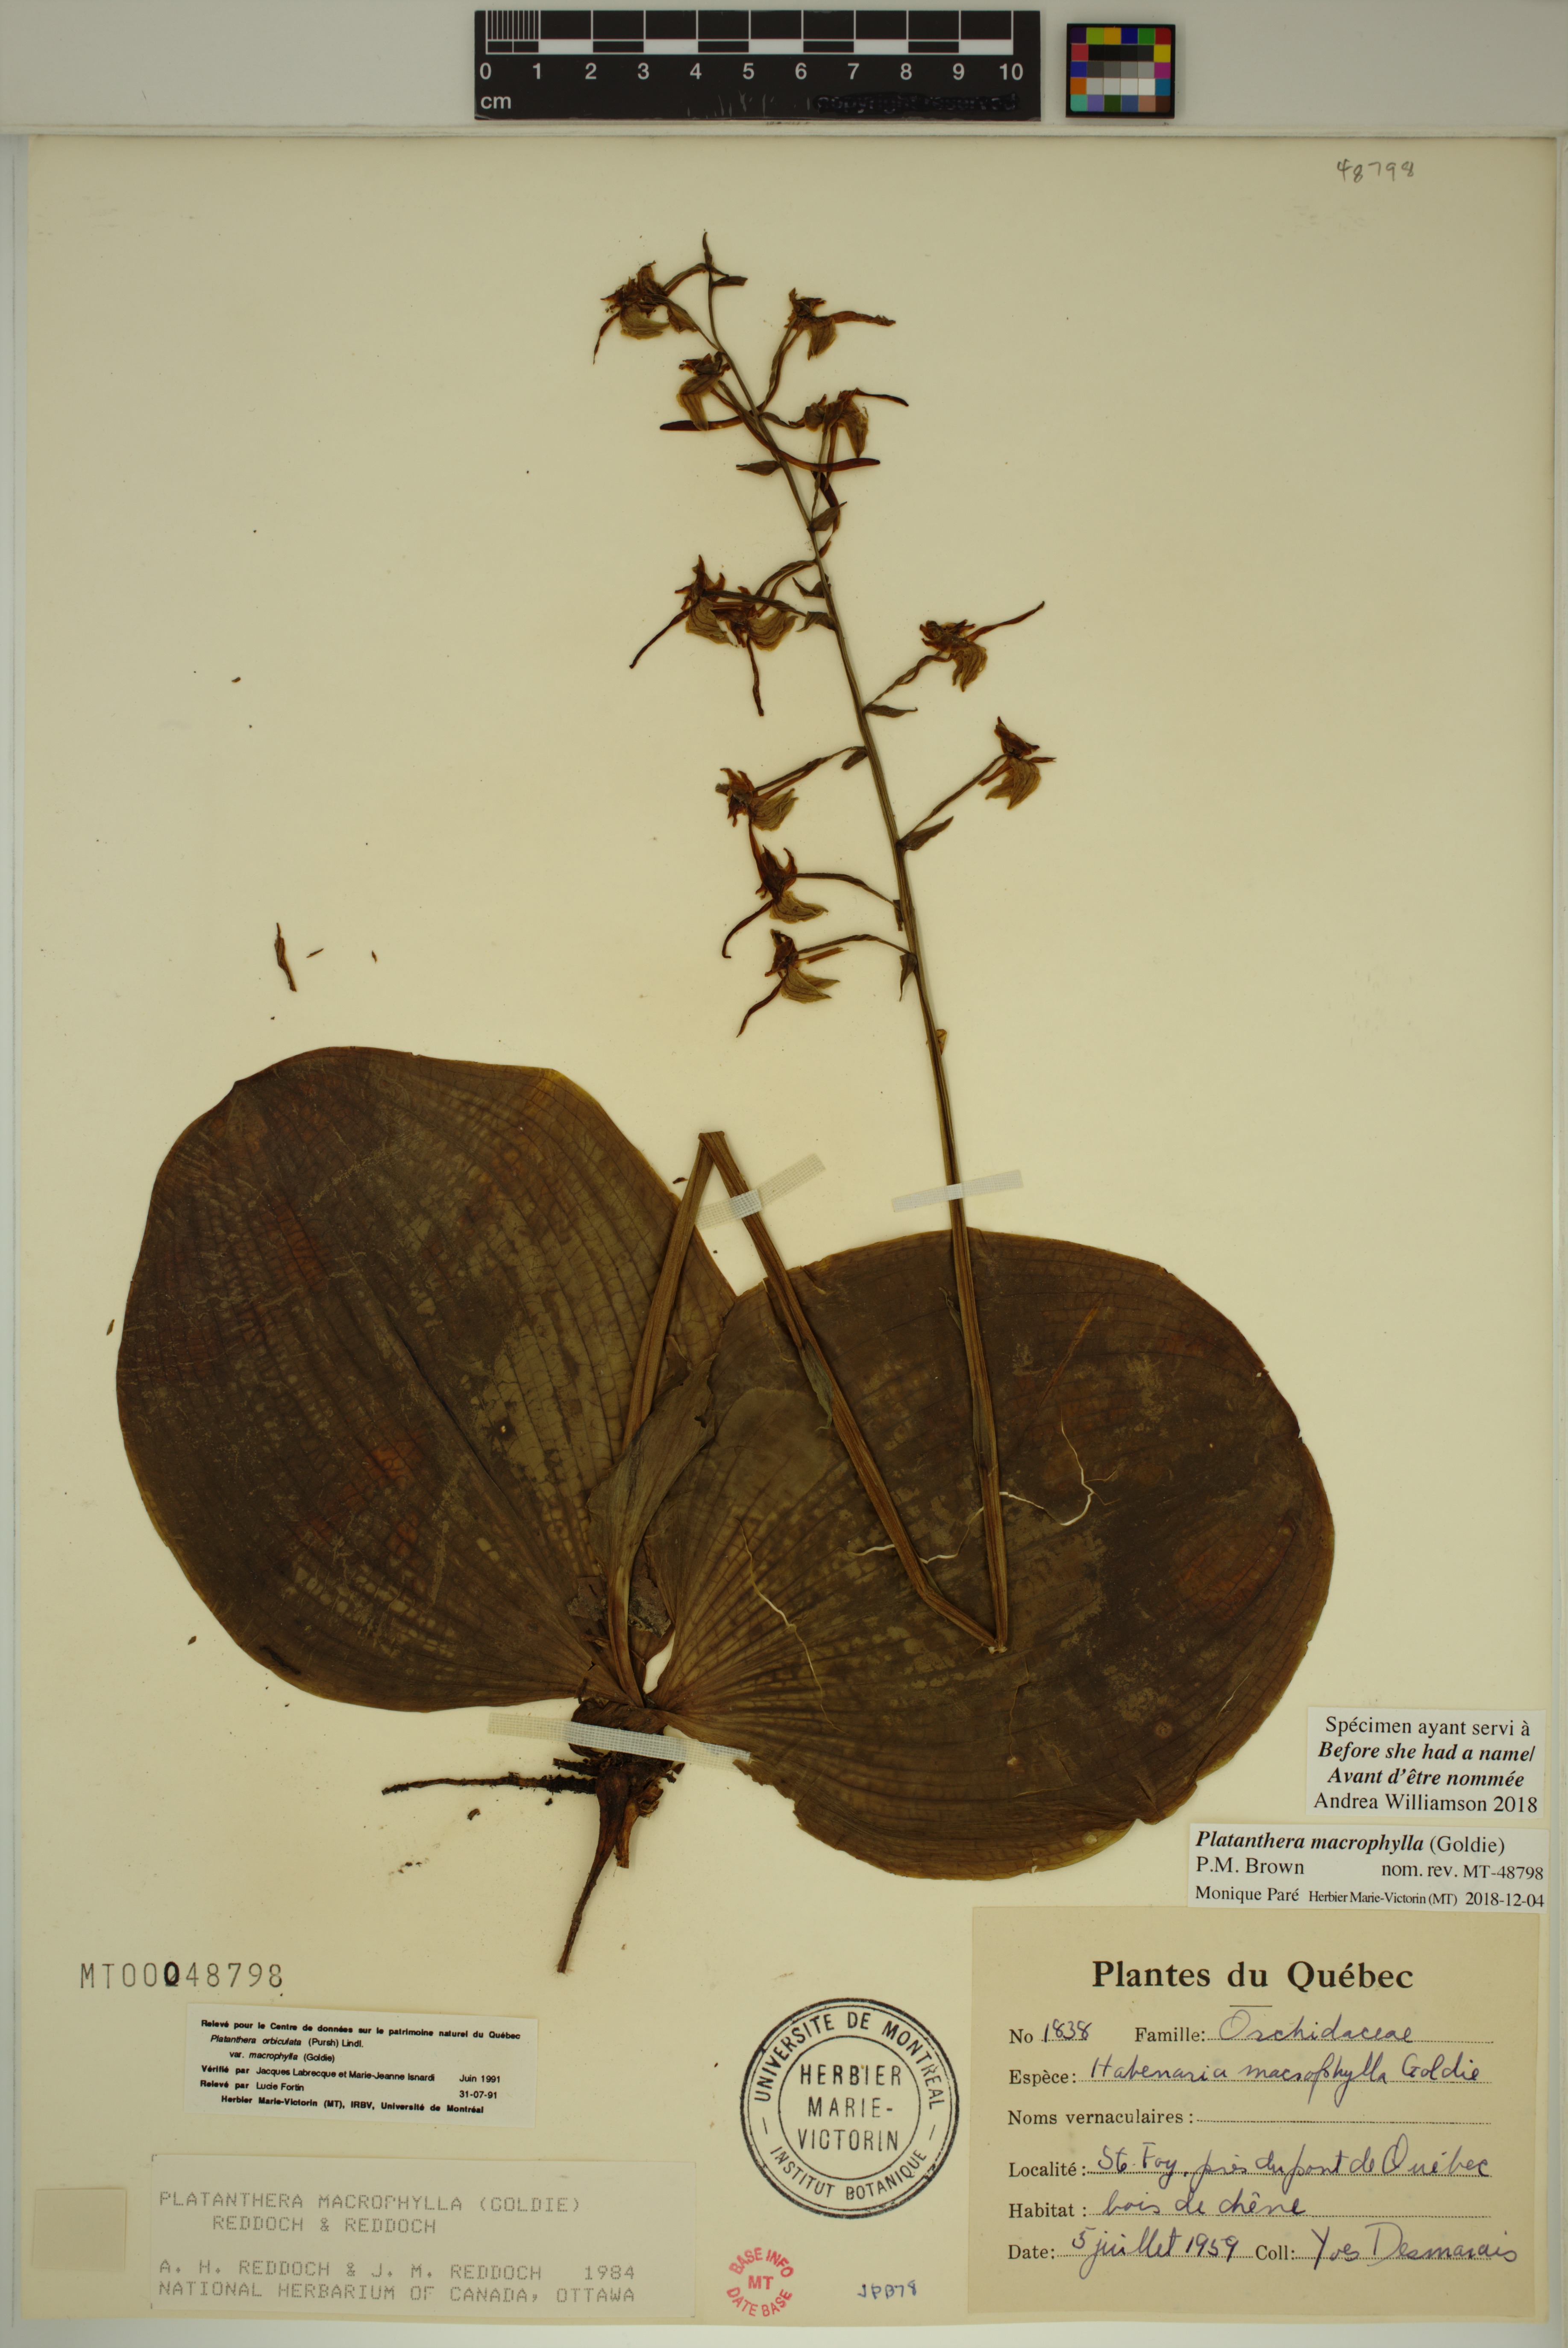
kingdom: Plantae
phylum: Tracheophyta
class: Liliopsida
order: Asparagales
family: Orchidaceae
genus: Platanthera
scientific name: Platanthera orbiculata
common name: Large round-leaved orchid
